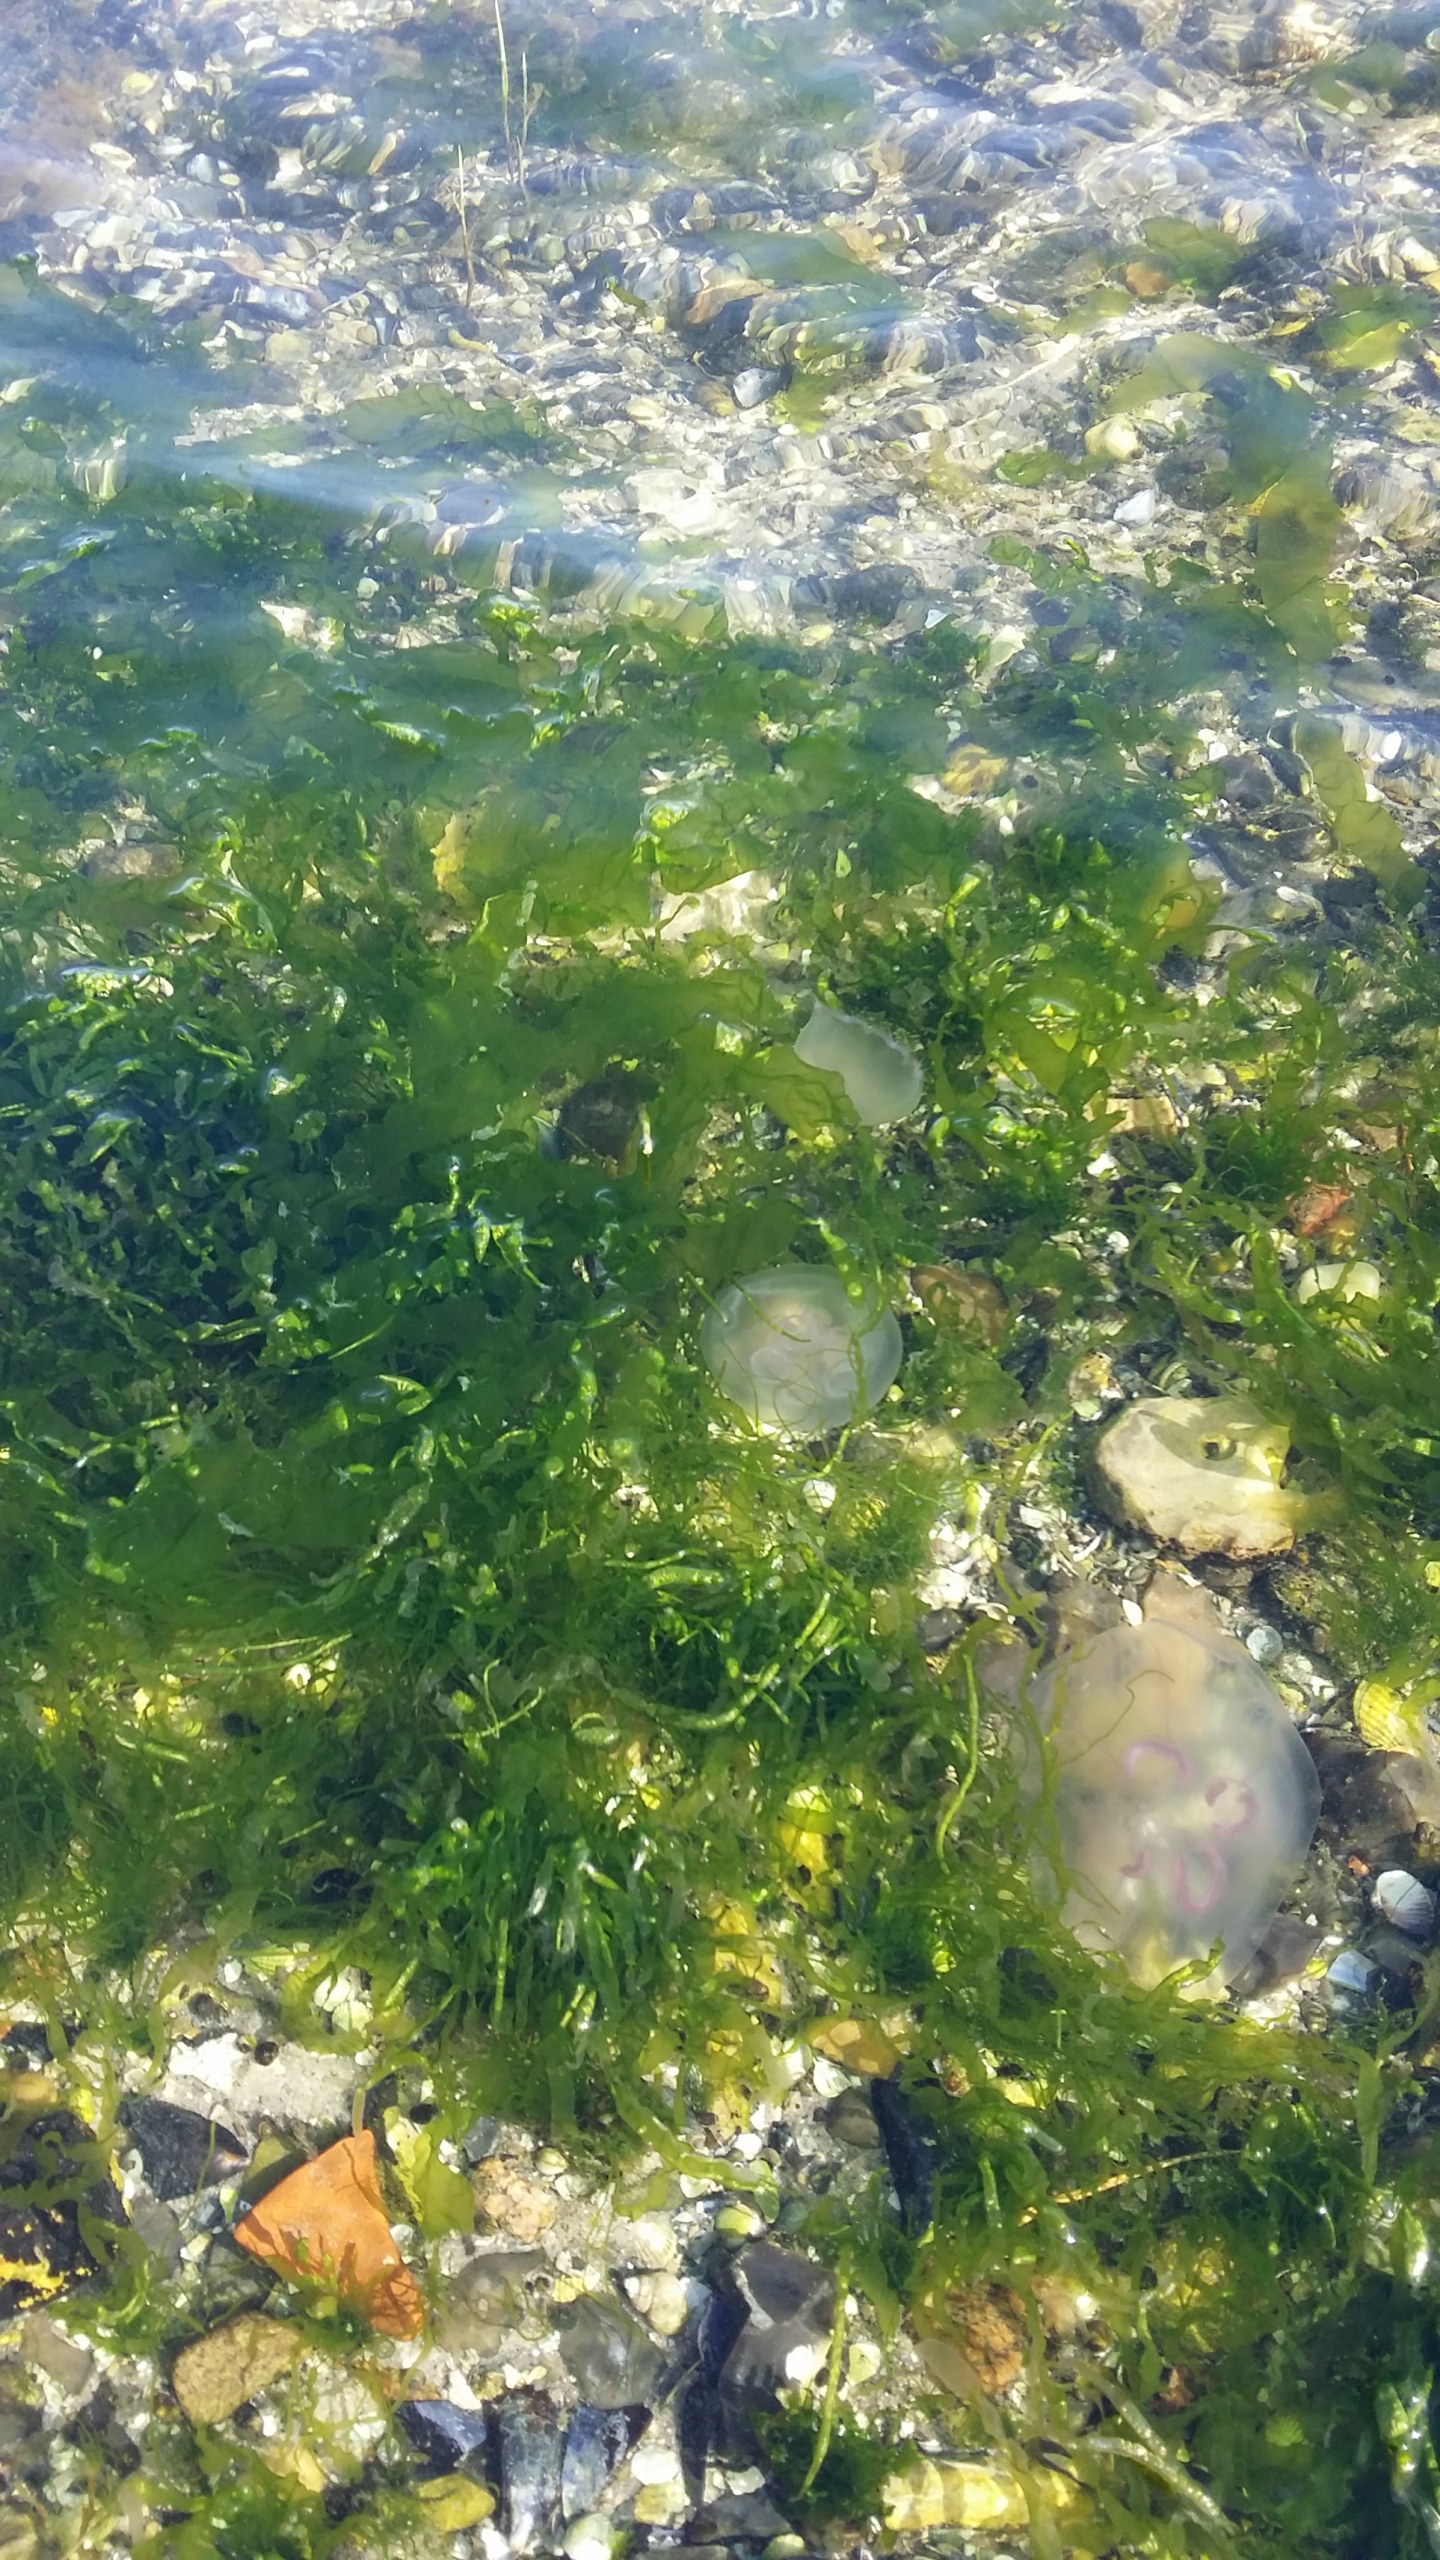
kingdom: Plantae
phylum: Chlorophyta
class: Ulvophyceae
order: Ulvales
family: Ulvaceae
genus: Ulva
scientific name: Ulva
